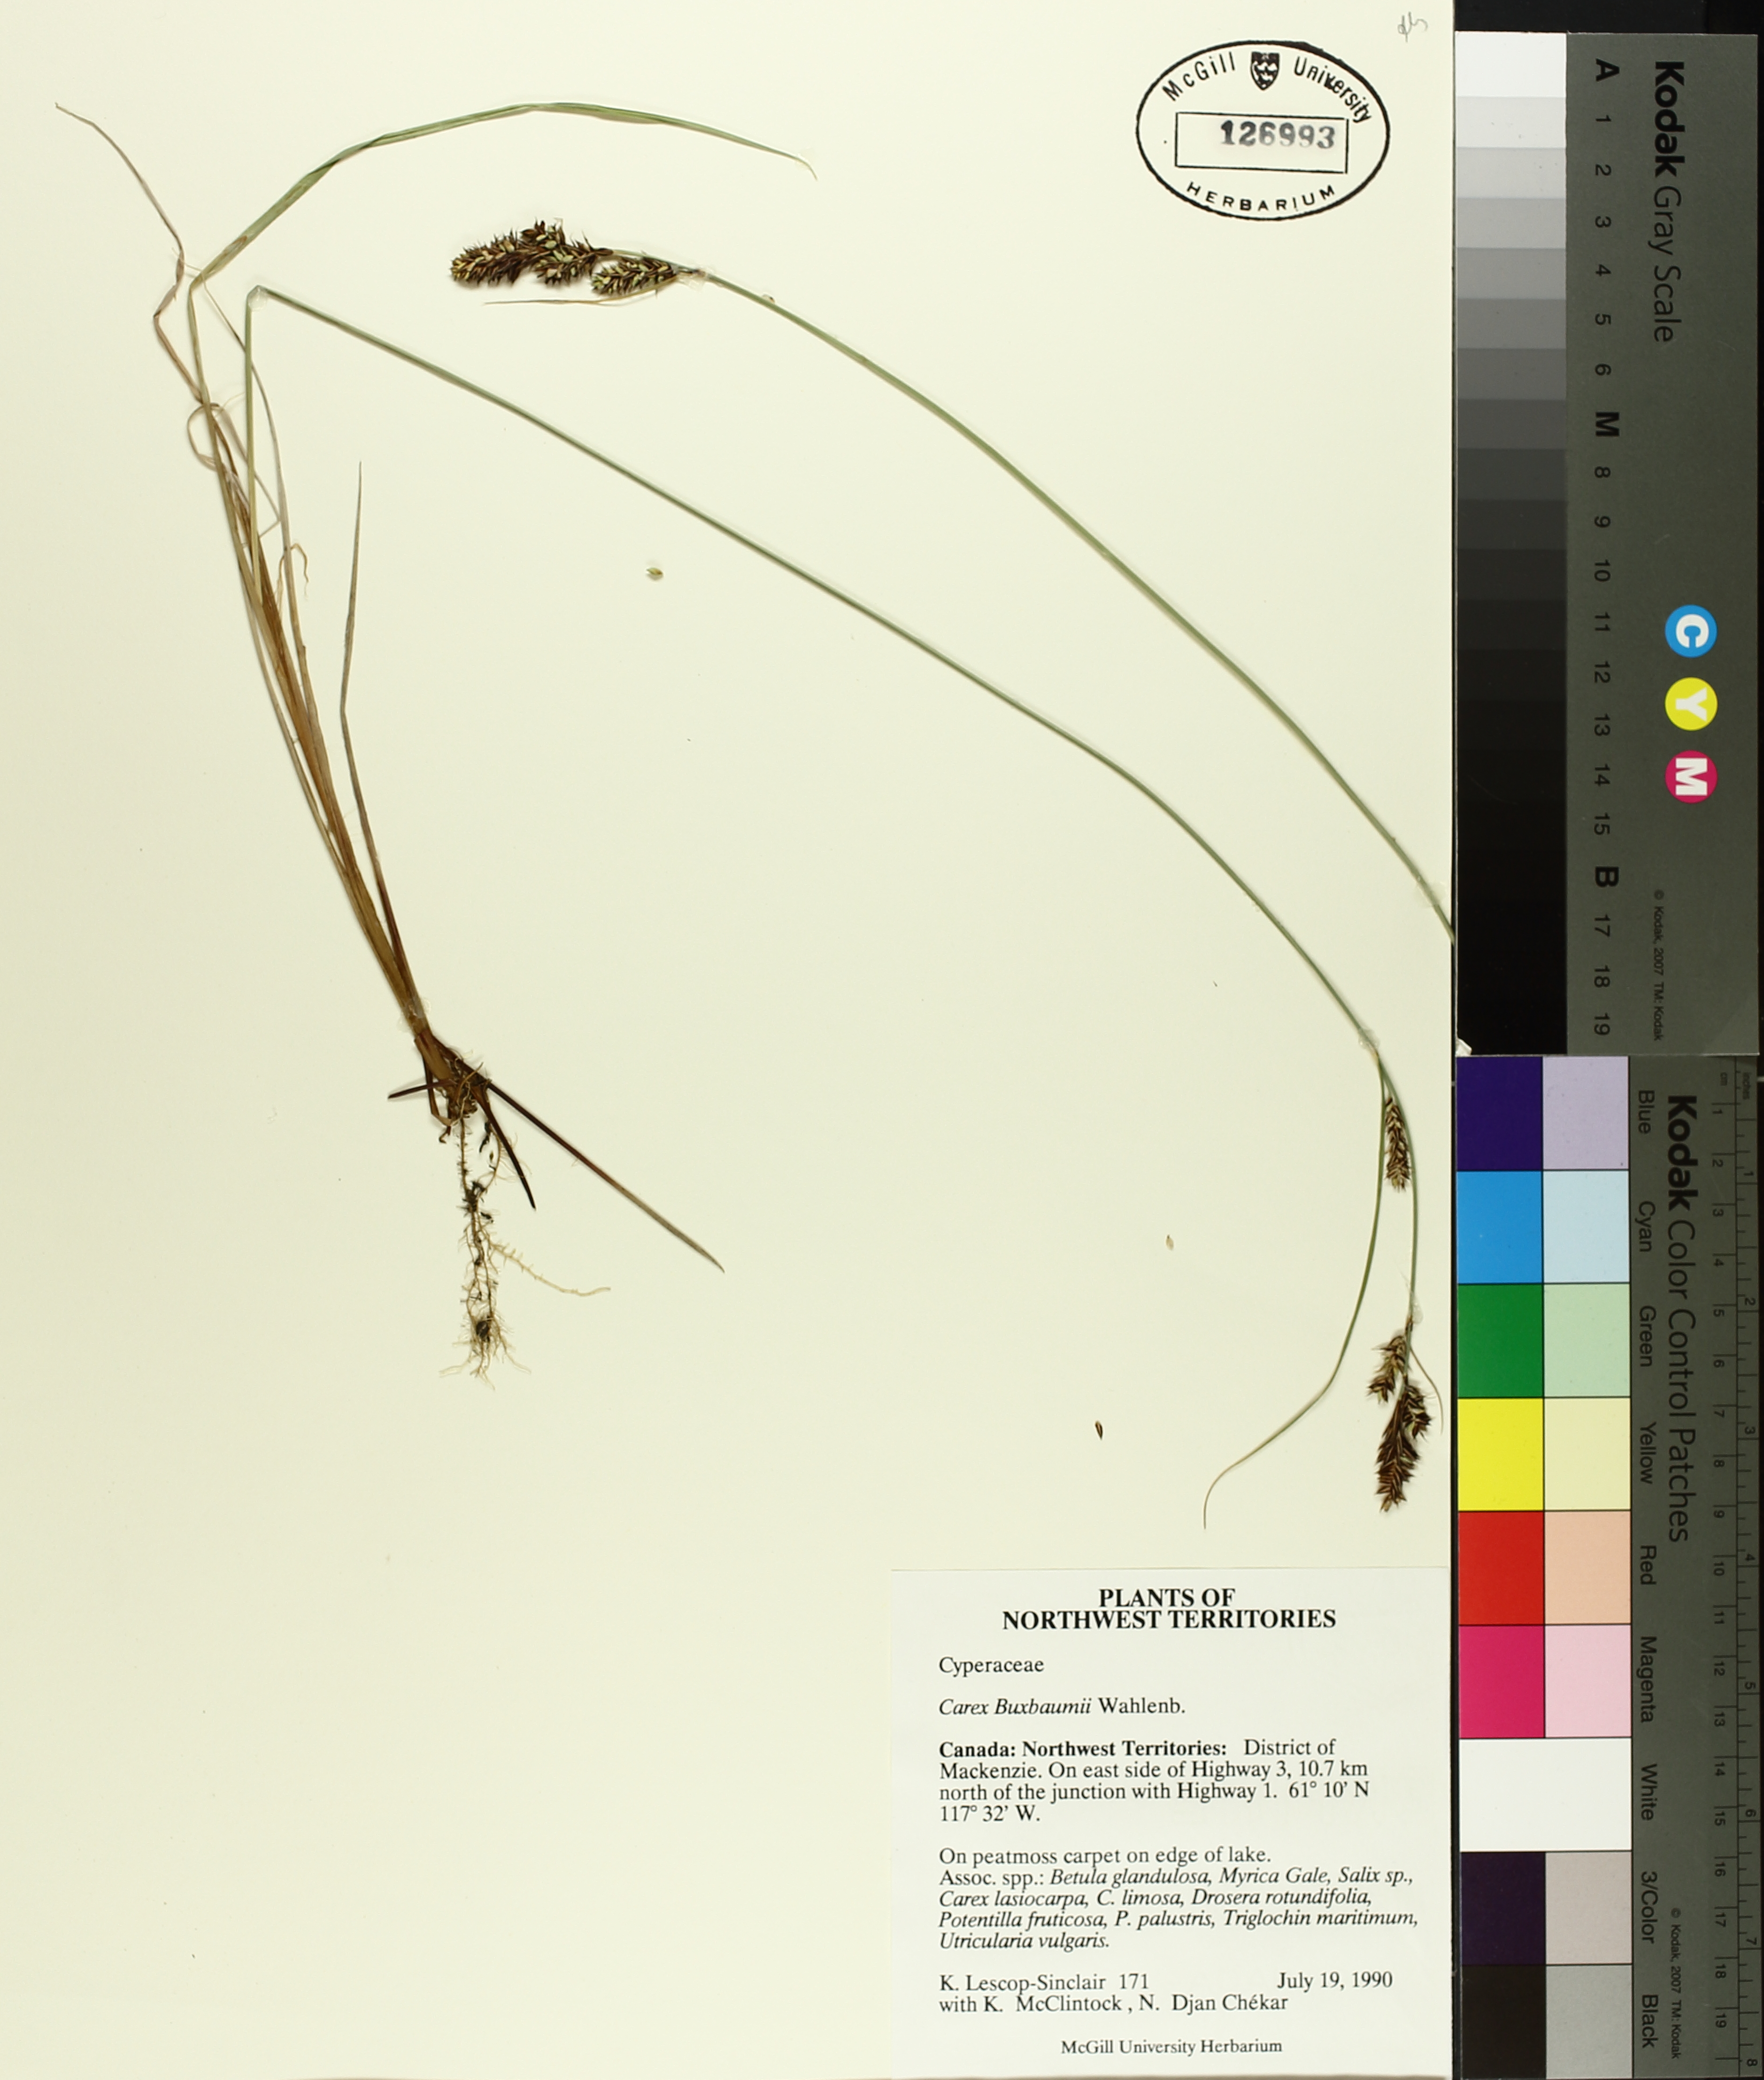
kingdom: Plantae
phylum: Tracheophyta
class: Liliopsida
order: Poales
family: Cyperaceae
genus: Carex
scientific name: Carex buxbaumii
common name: Club sedge
